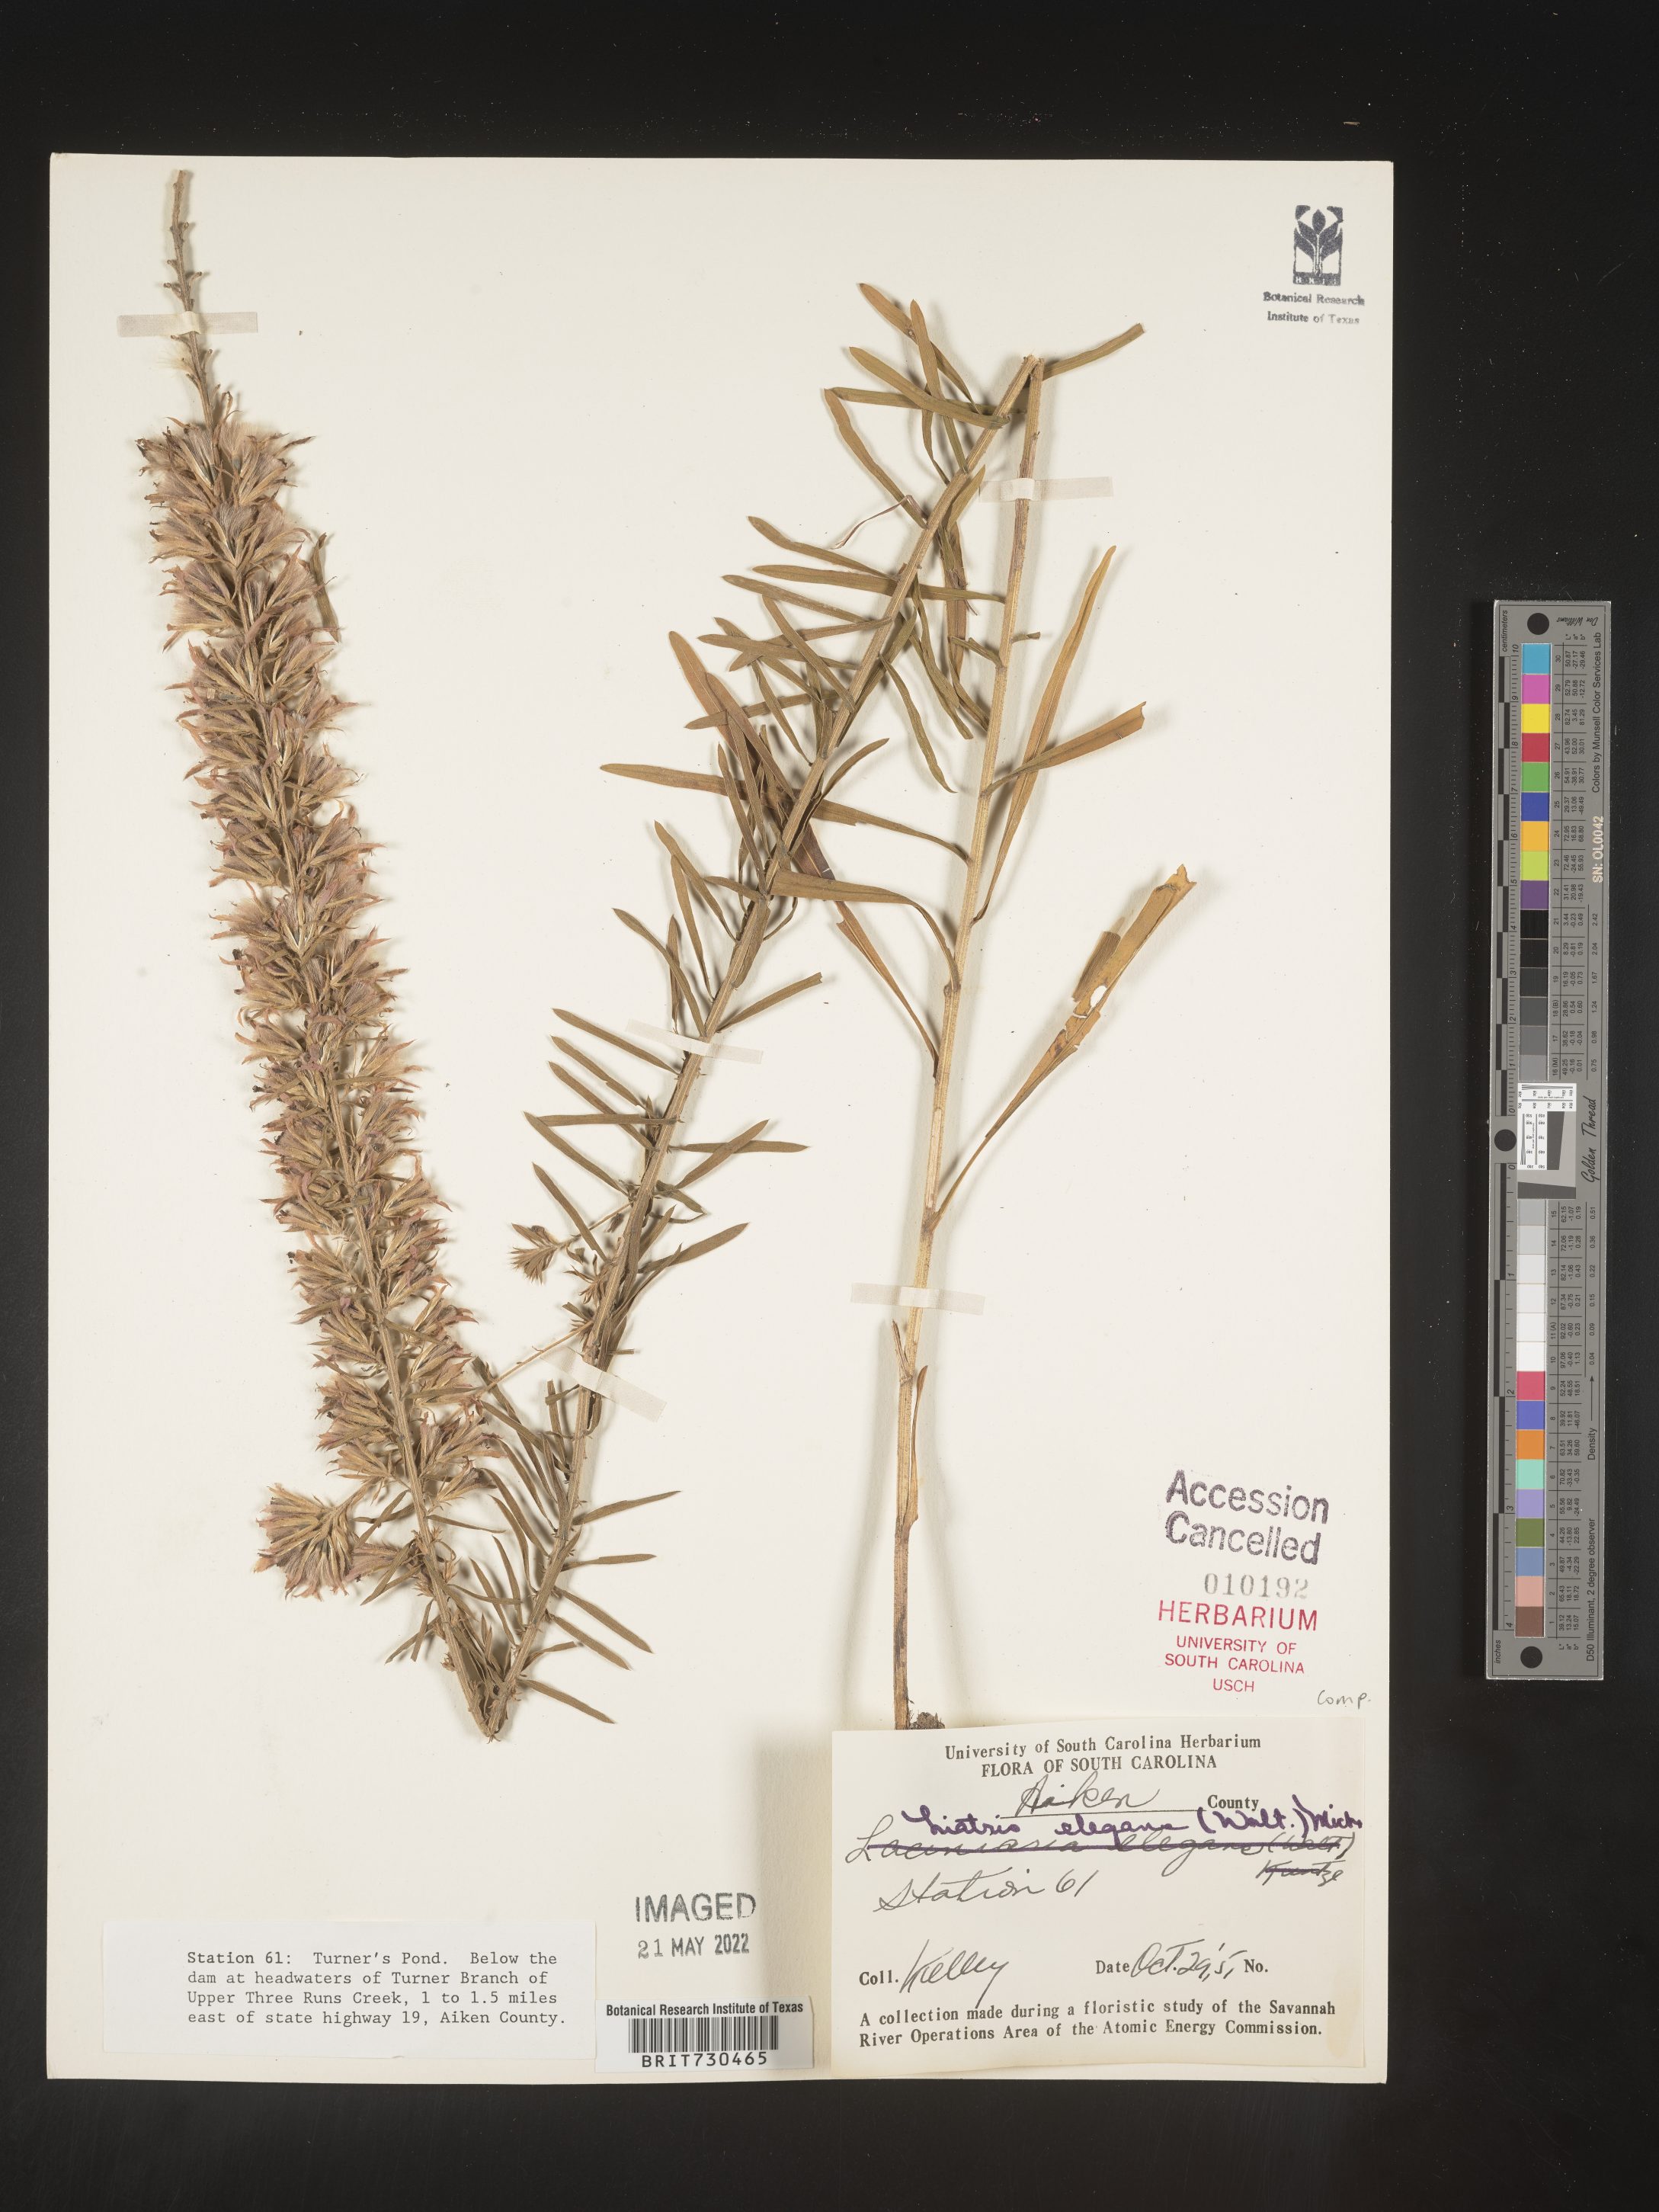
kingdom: Plantae
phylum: Tracheophyta
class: Magnoliopsida
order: Asterales
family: Asteraceae
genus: Liatris
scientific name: Liatris elegans
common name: Pinkscale gayfeather
